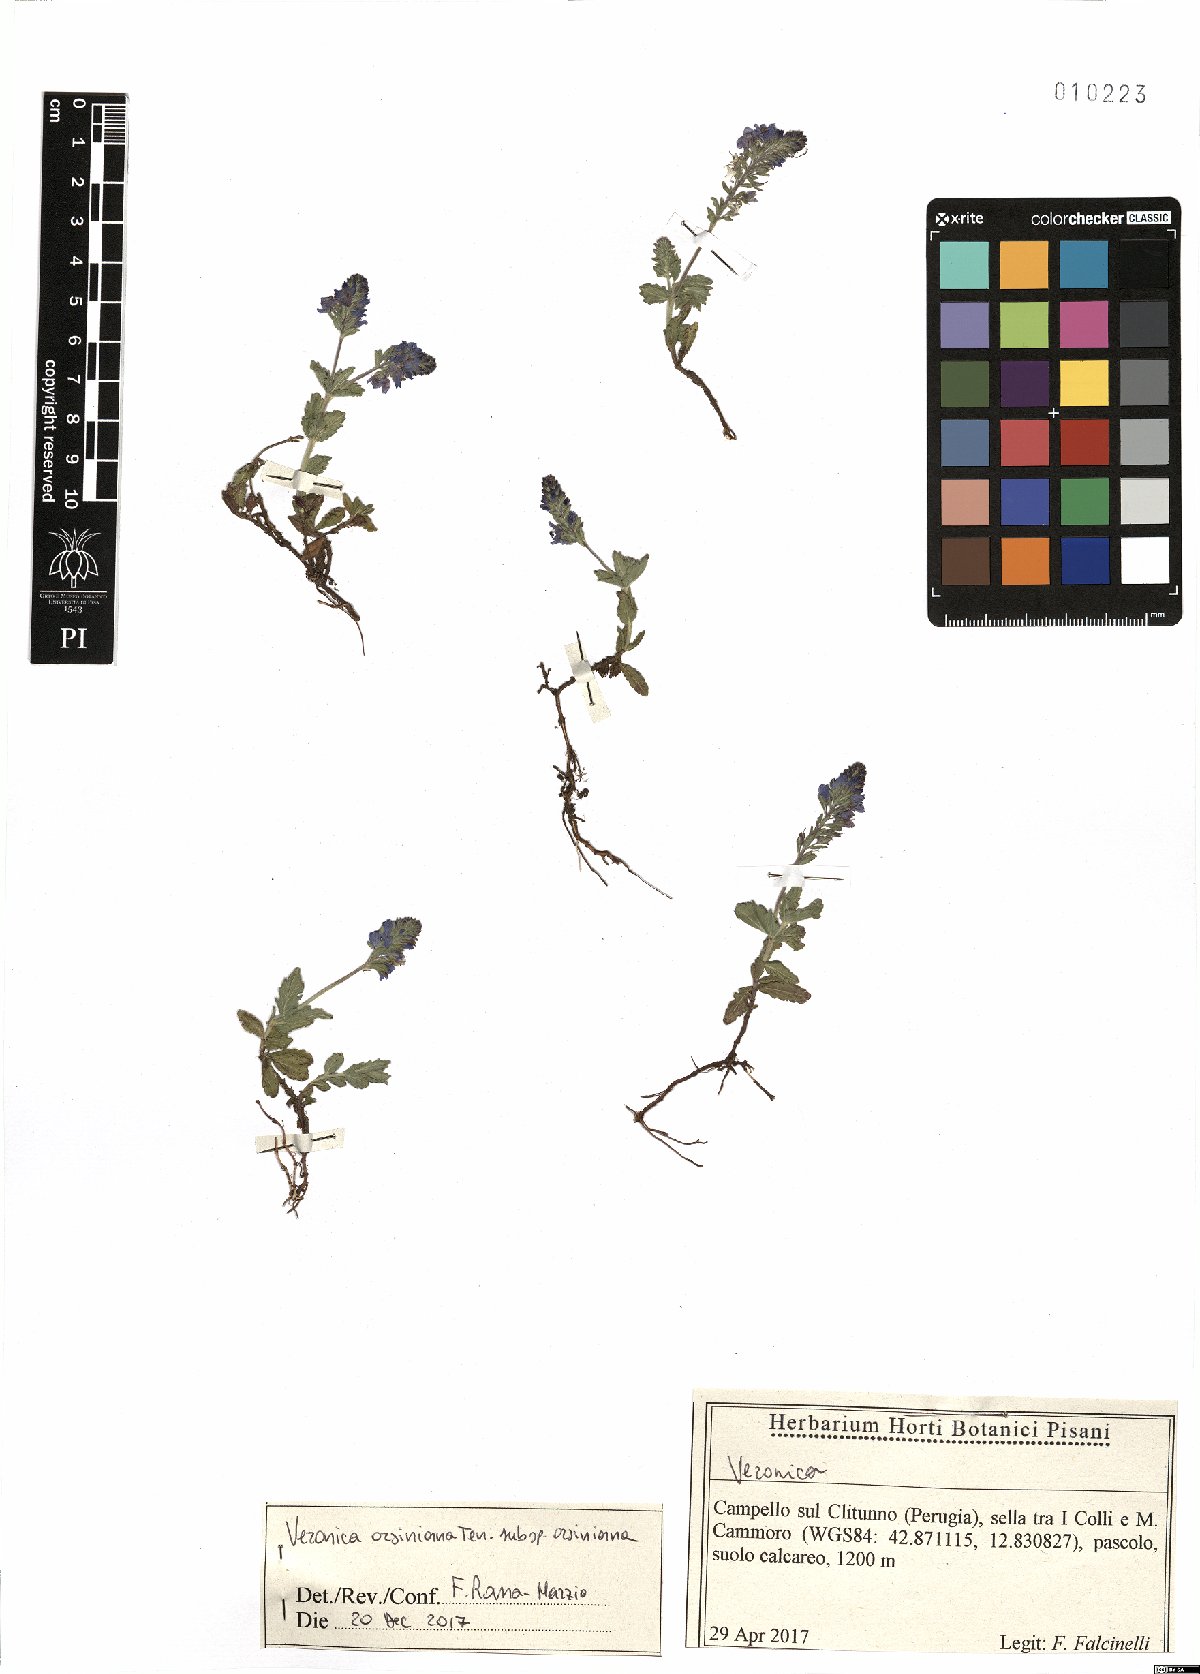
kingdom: Plantae
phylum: Tracheophyta
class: Magnoliopsida
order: Lamiales
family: Plantaginaceae
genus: Veronica
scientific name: Veronica orsiniana
